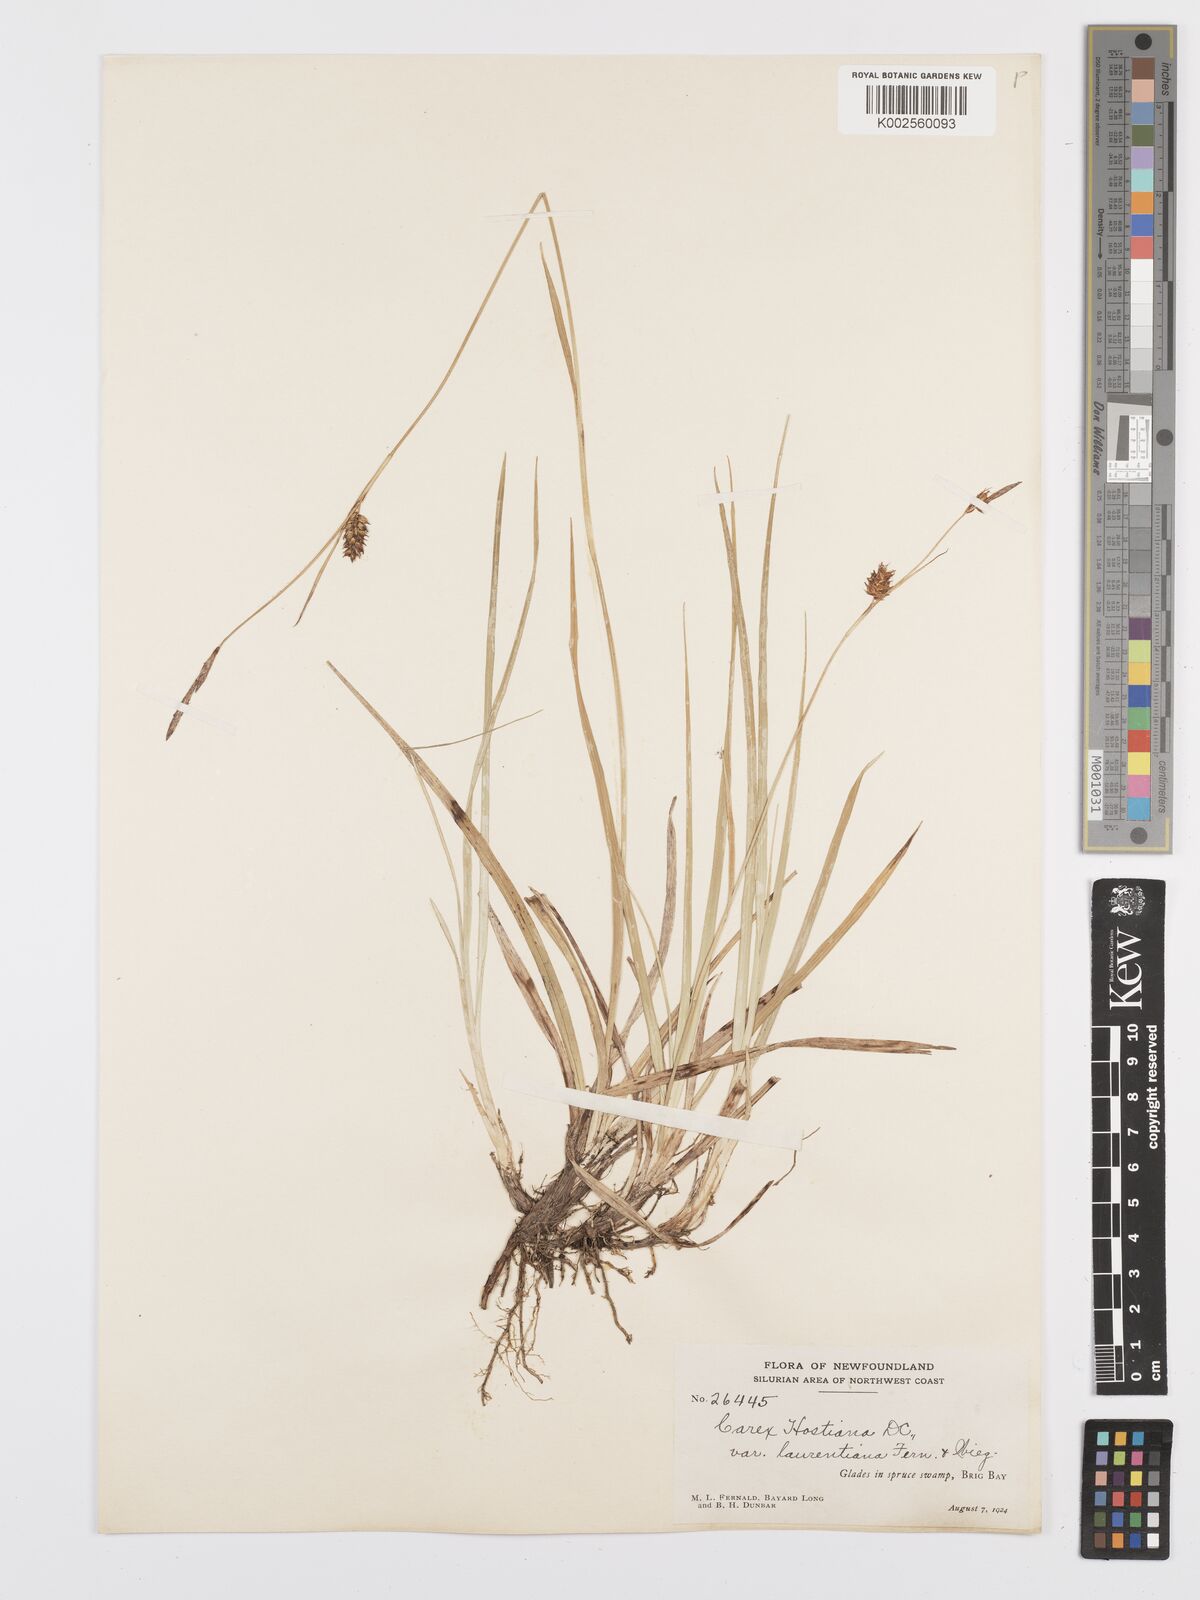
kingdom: Plantae
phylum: Tracheophyta
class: Liliopsida
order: Poales
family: Cyperaceae
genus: Carex
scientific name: Carex hostiana
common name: Tawny sedge
